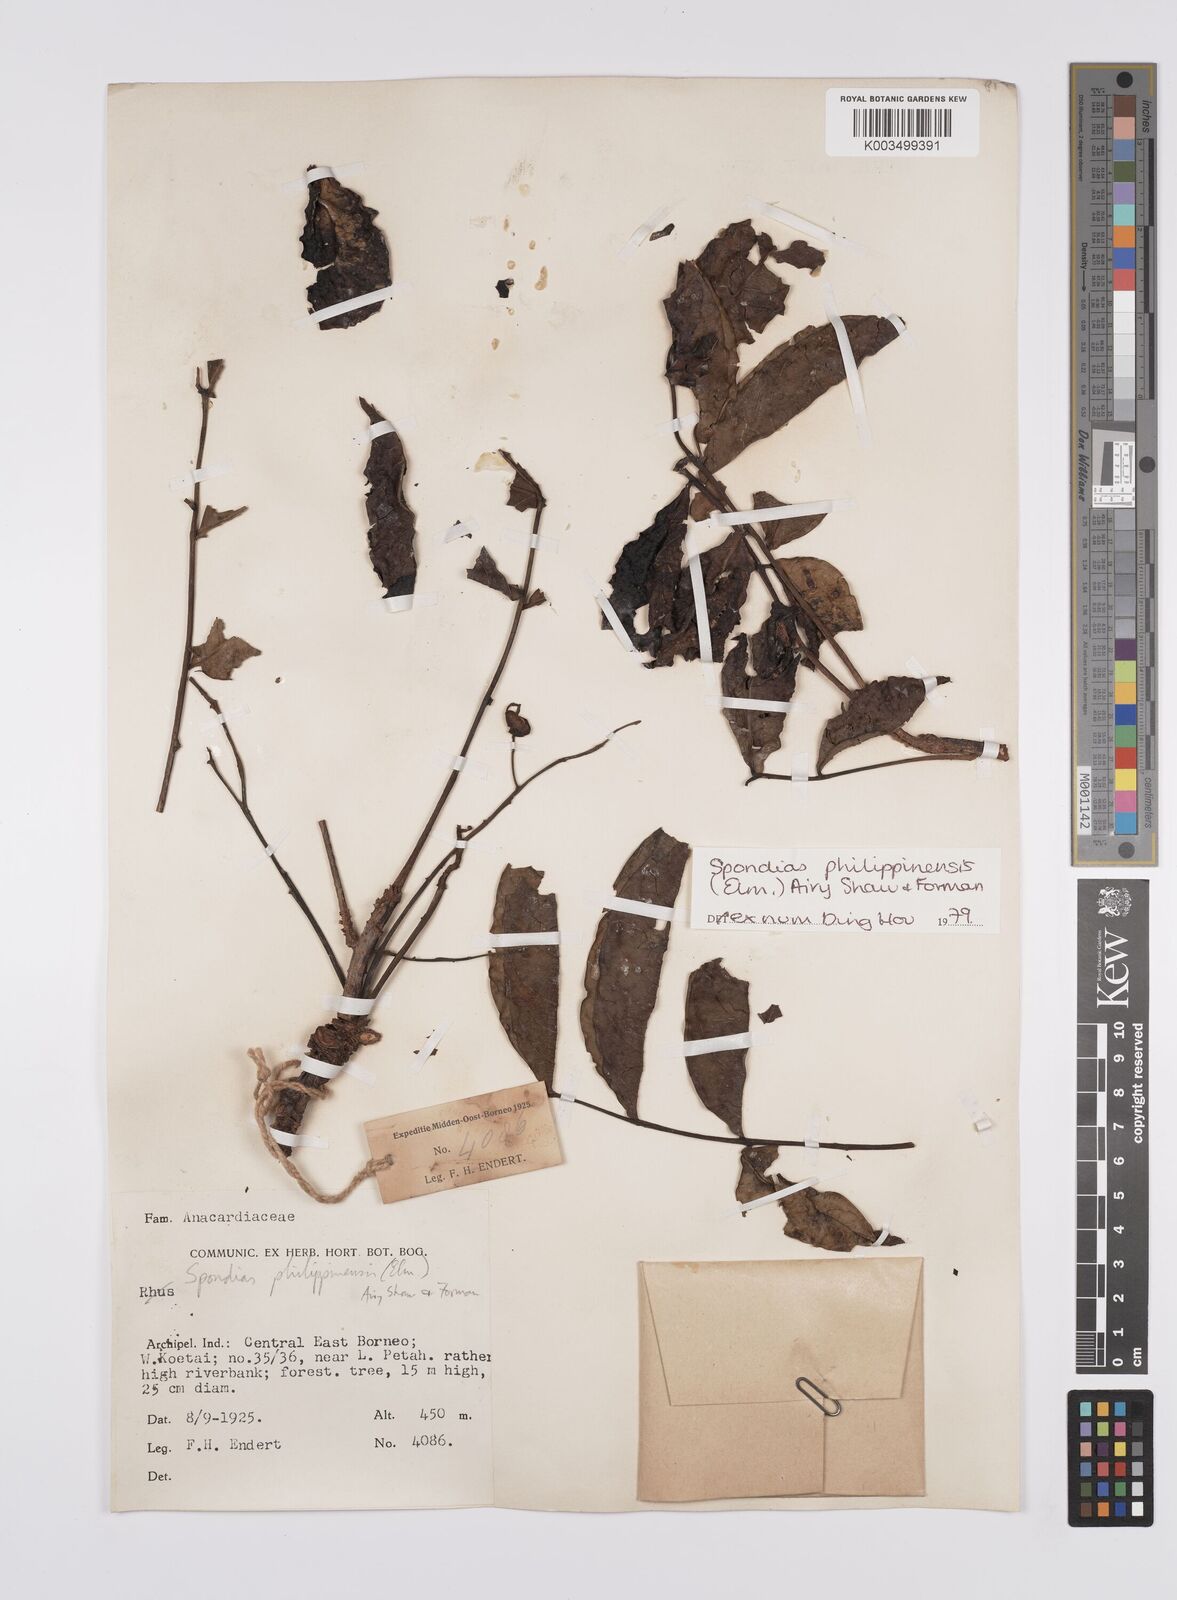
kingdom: Plantae
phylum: Tracheophyta
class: Magnoliopsida
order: Sapindales
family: Anacardiaceae
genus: Spondias
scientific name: Spondias philippinensis
